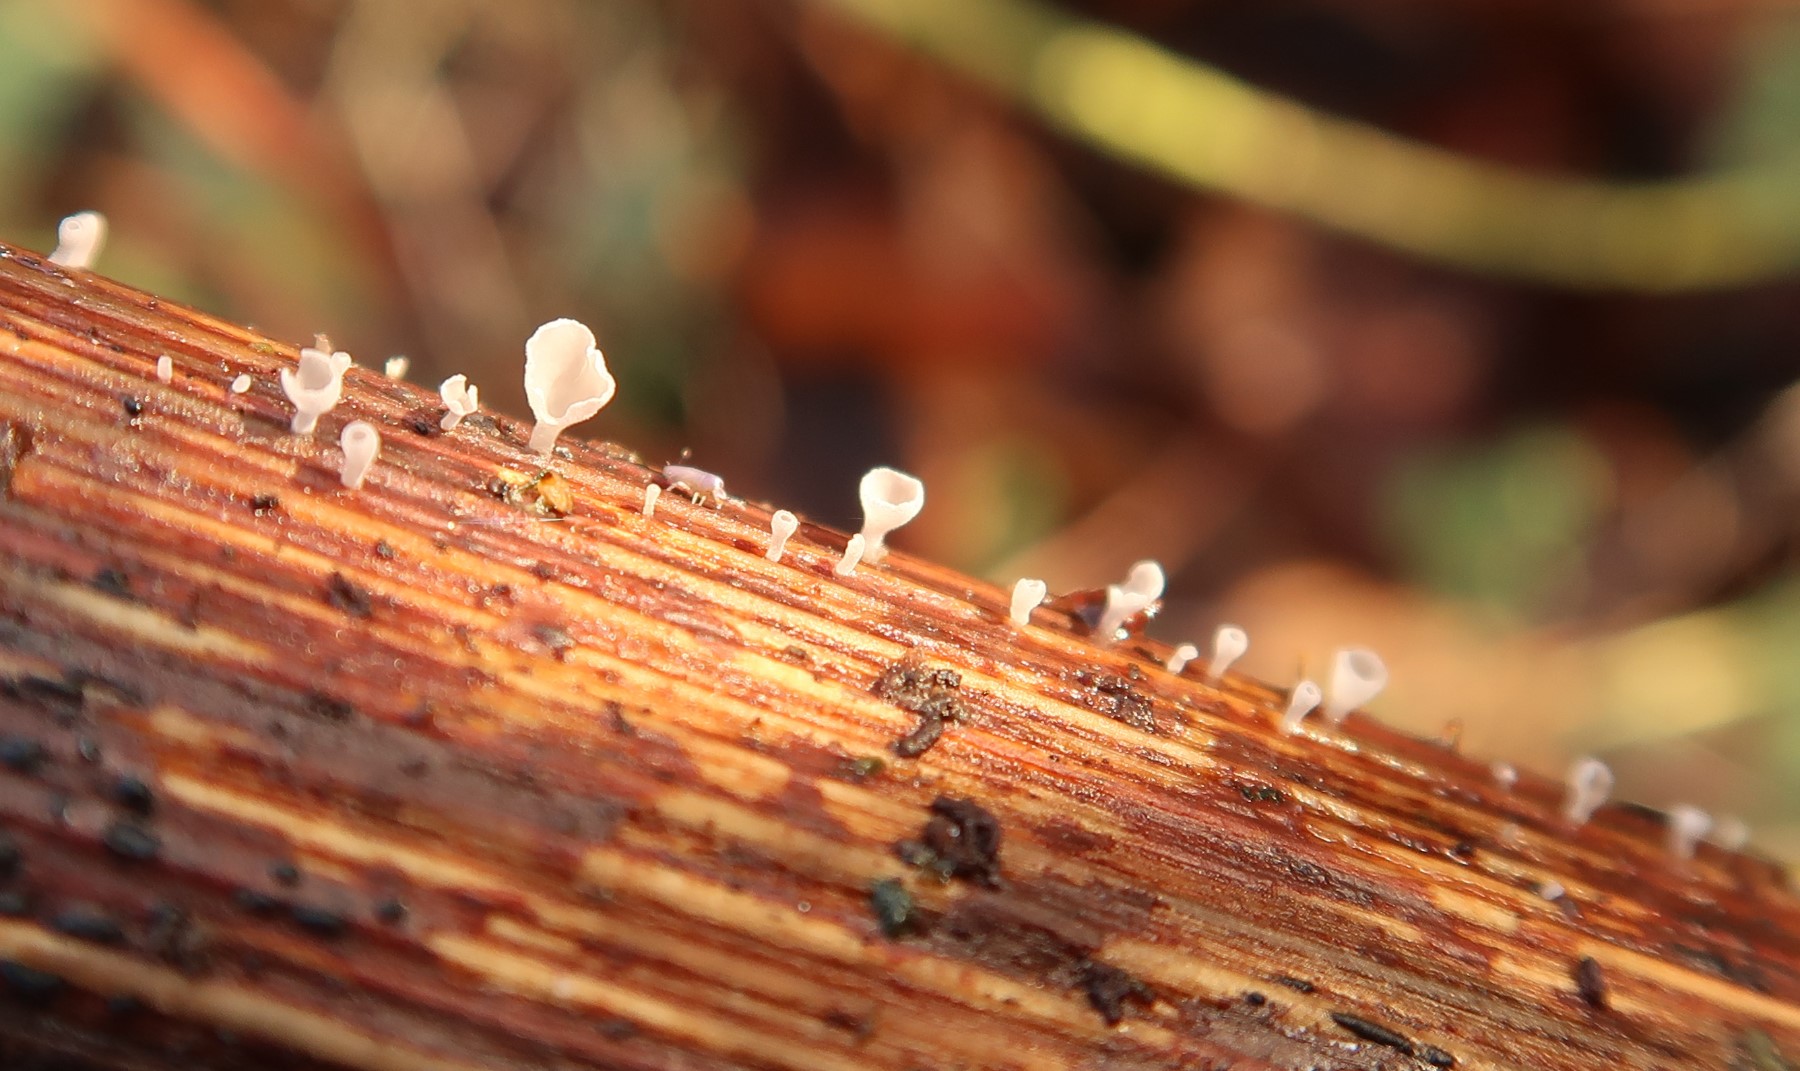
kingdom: Fungi
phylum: Basidiomycota
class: Agaricomycetes
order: Agaricales
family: Marasmiaceae
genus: Calyptella
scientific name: Calyptella capula
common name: hvidlig nældehue
